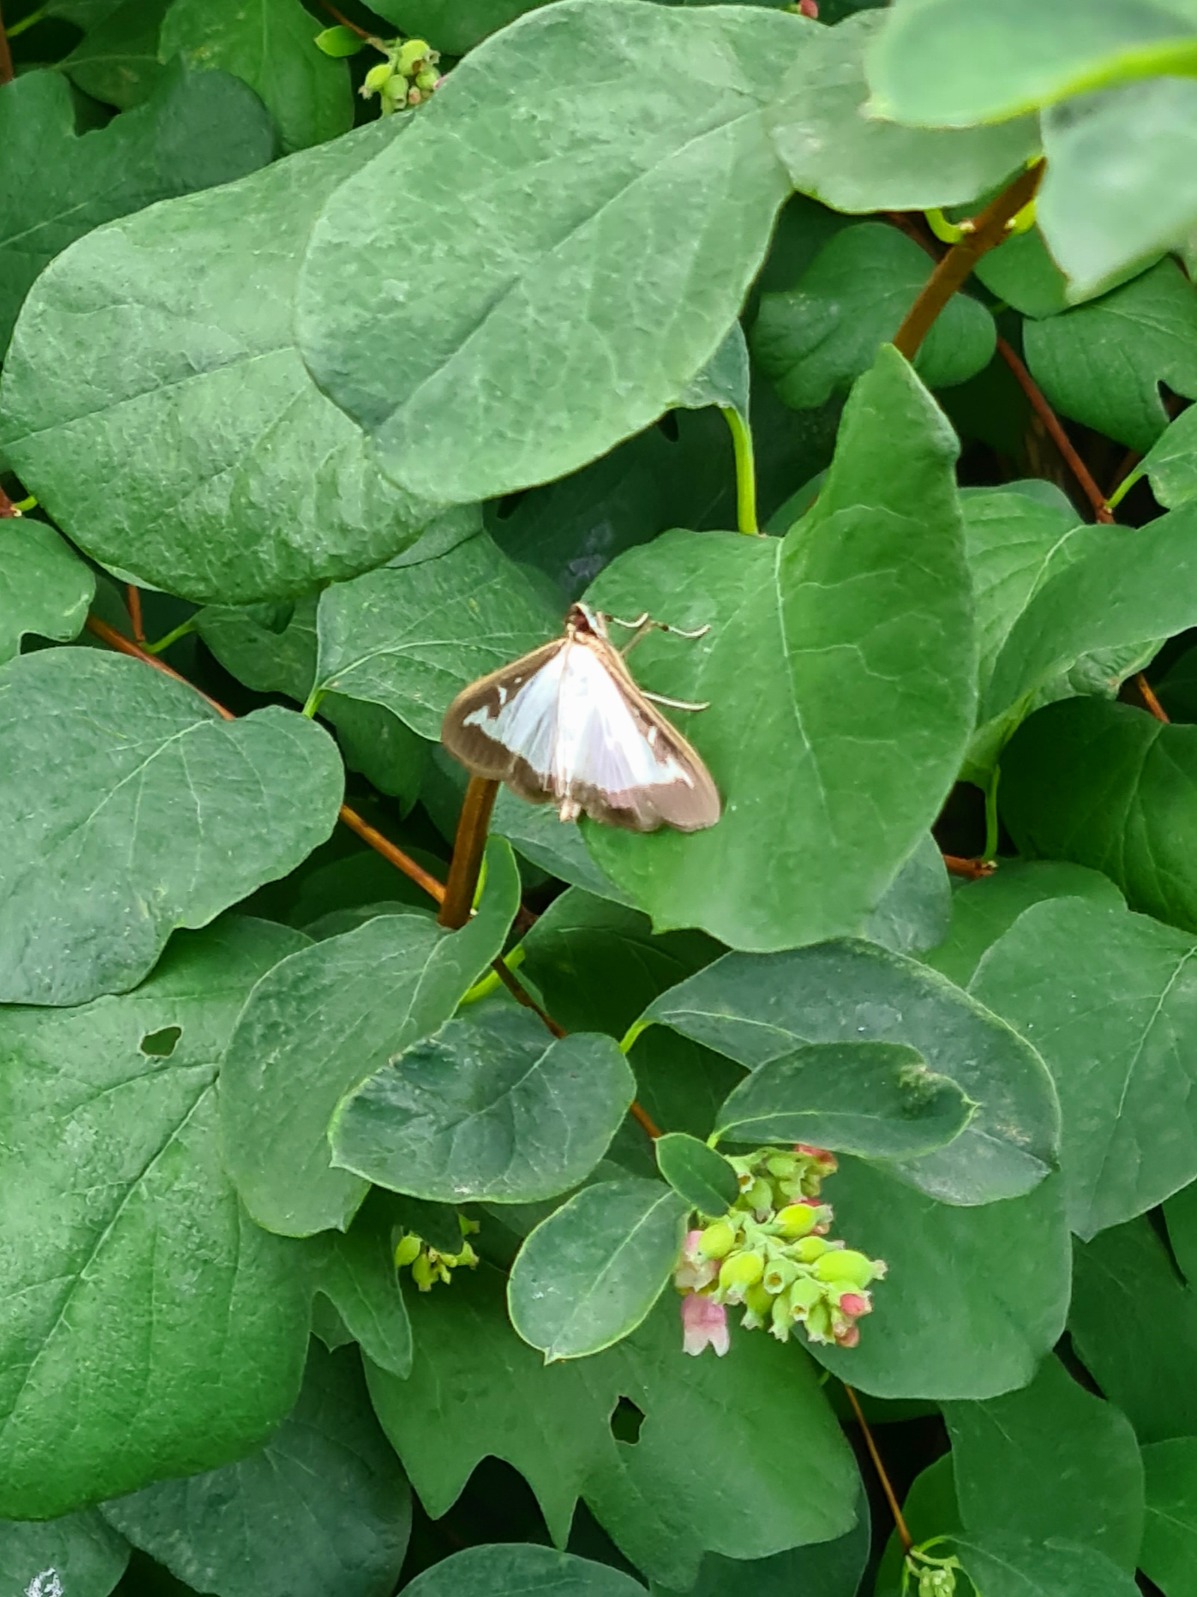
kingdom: Animalia
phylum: Arthropoda
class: Insecta
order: Lepidoptera
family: Crambidae
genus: Cydalima
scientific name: Cydalima perspectalis
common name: Buksbomhalvmøl
